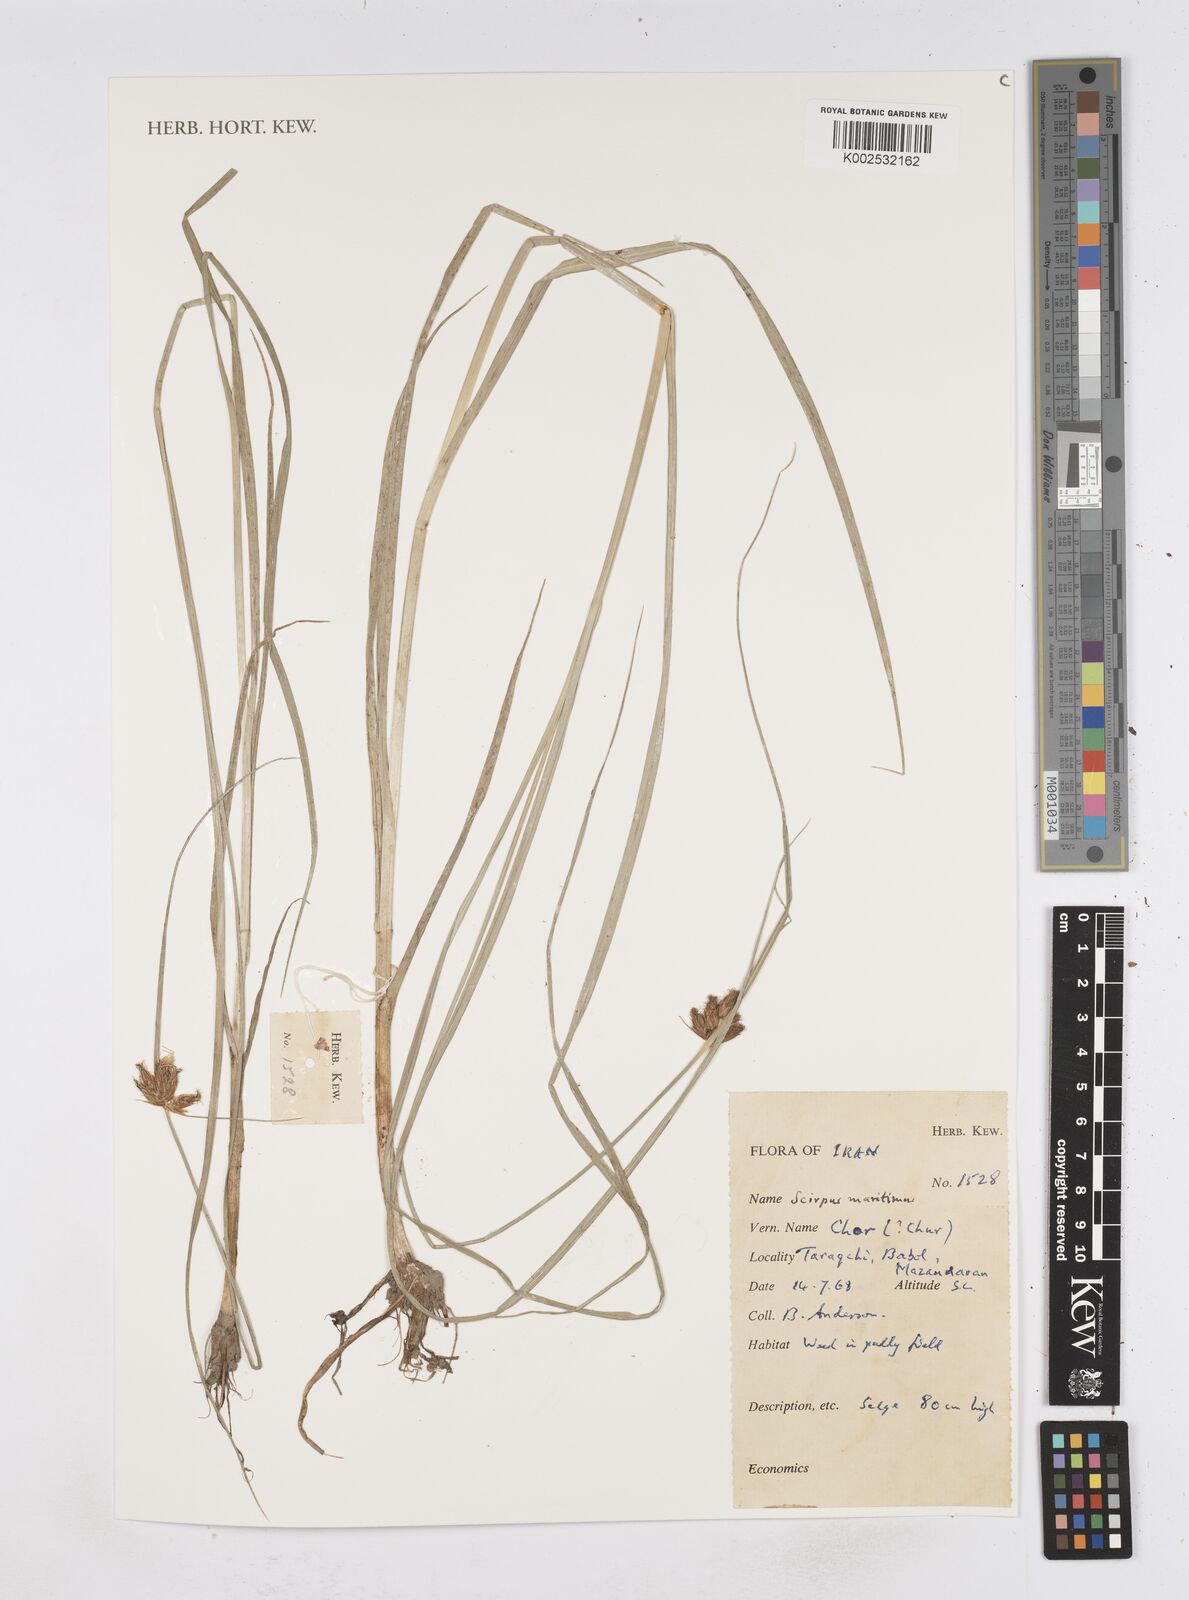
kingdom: Plantae
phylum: Tracheophyta
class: Liliopsida
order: Poales
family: Cyperaceae
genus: Bolboschoenus
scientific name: Bolboschoenus maritimus
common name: Sea club-rush
